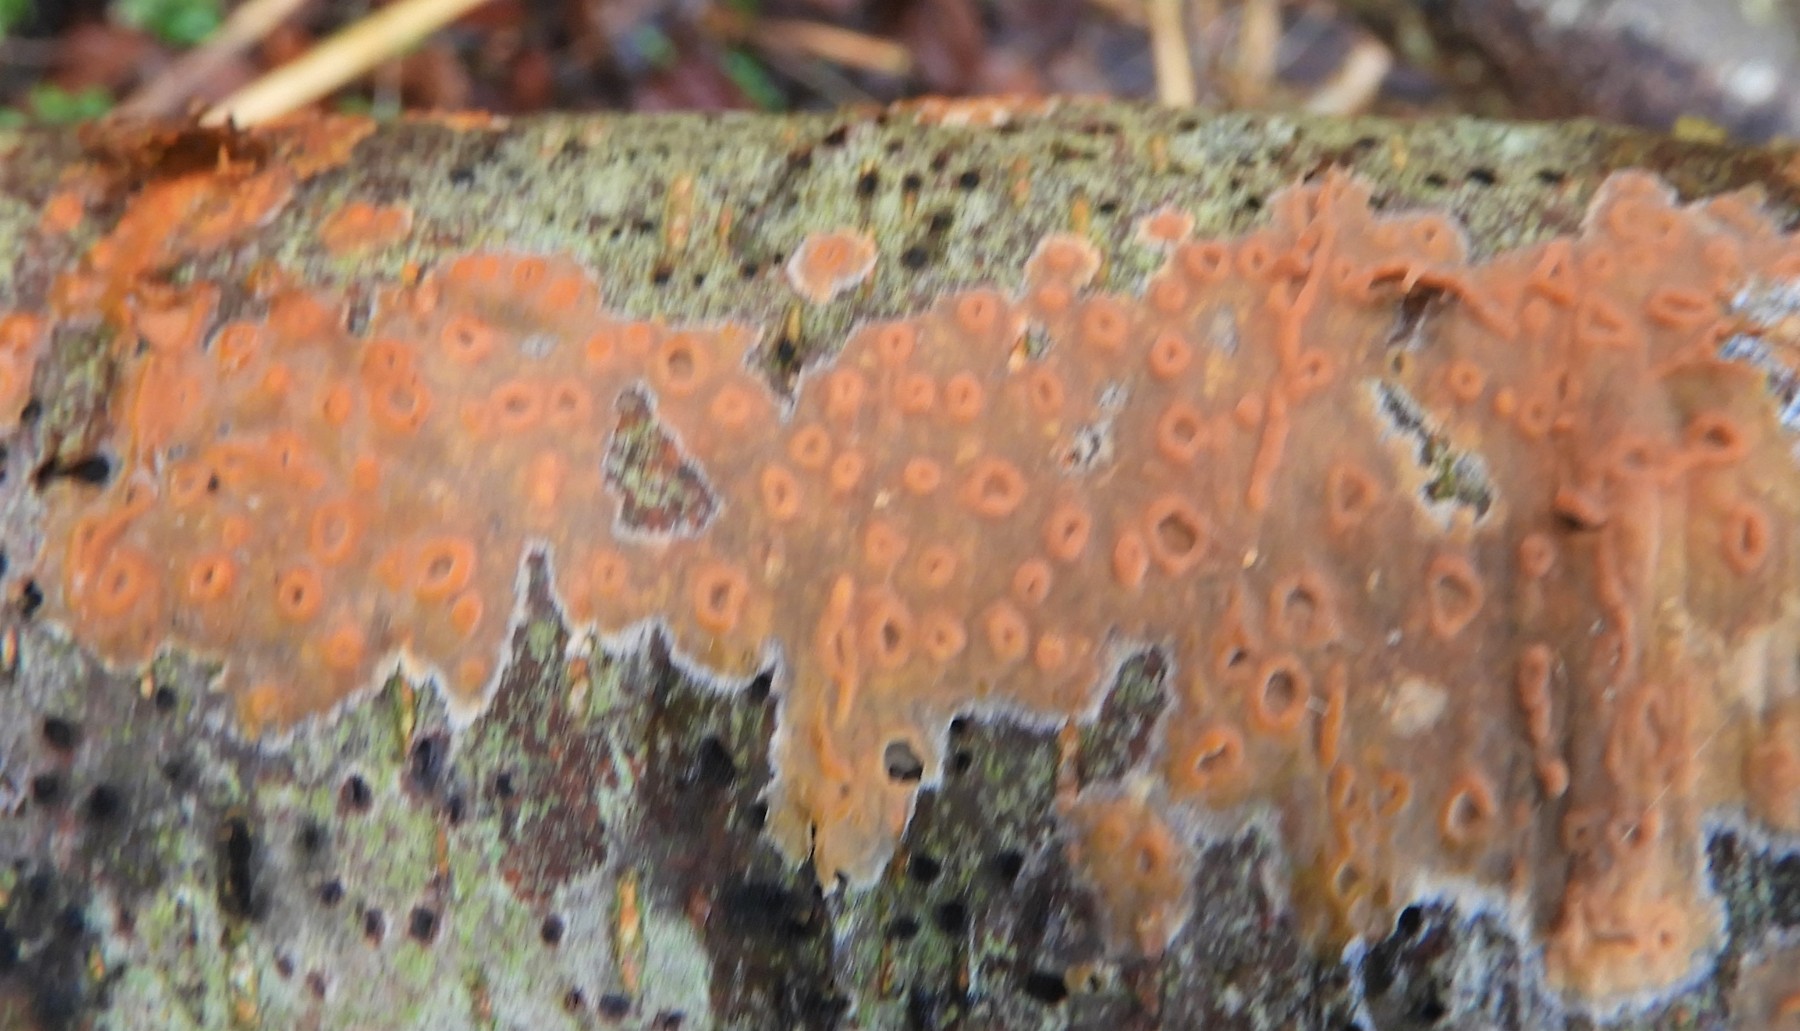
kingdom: Fungi
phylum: Basidiomycota
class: Agaricomycetes
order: Russulales
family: Peniophoraceae
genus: Peniophora
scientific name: Peniophora incarnata
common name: laksefarvet voksskind
